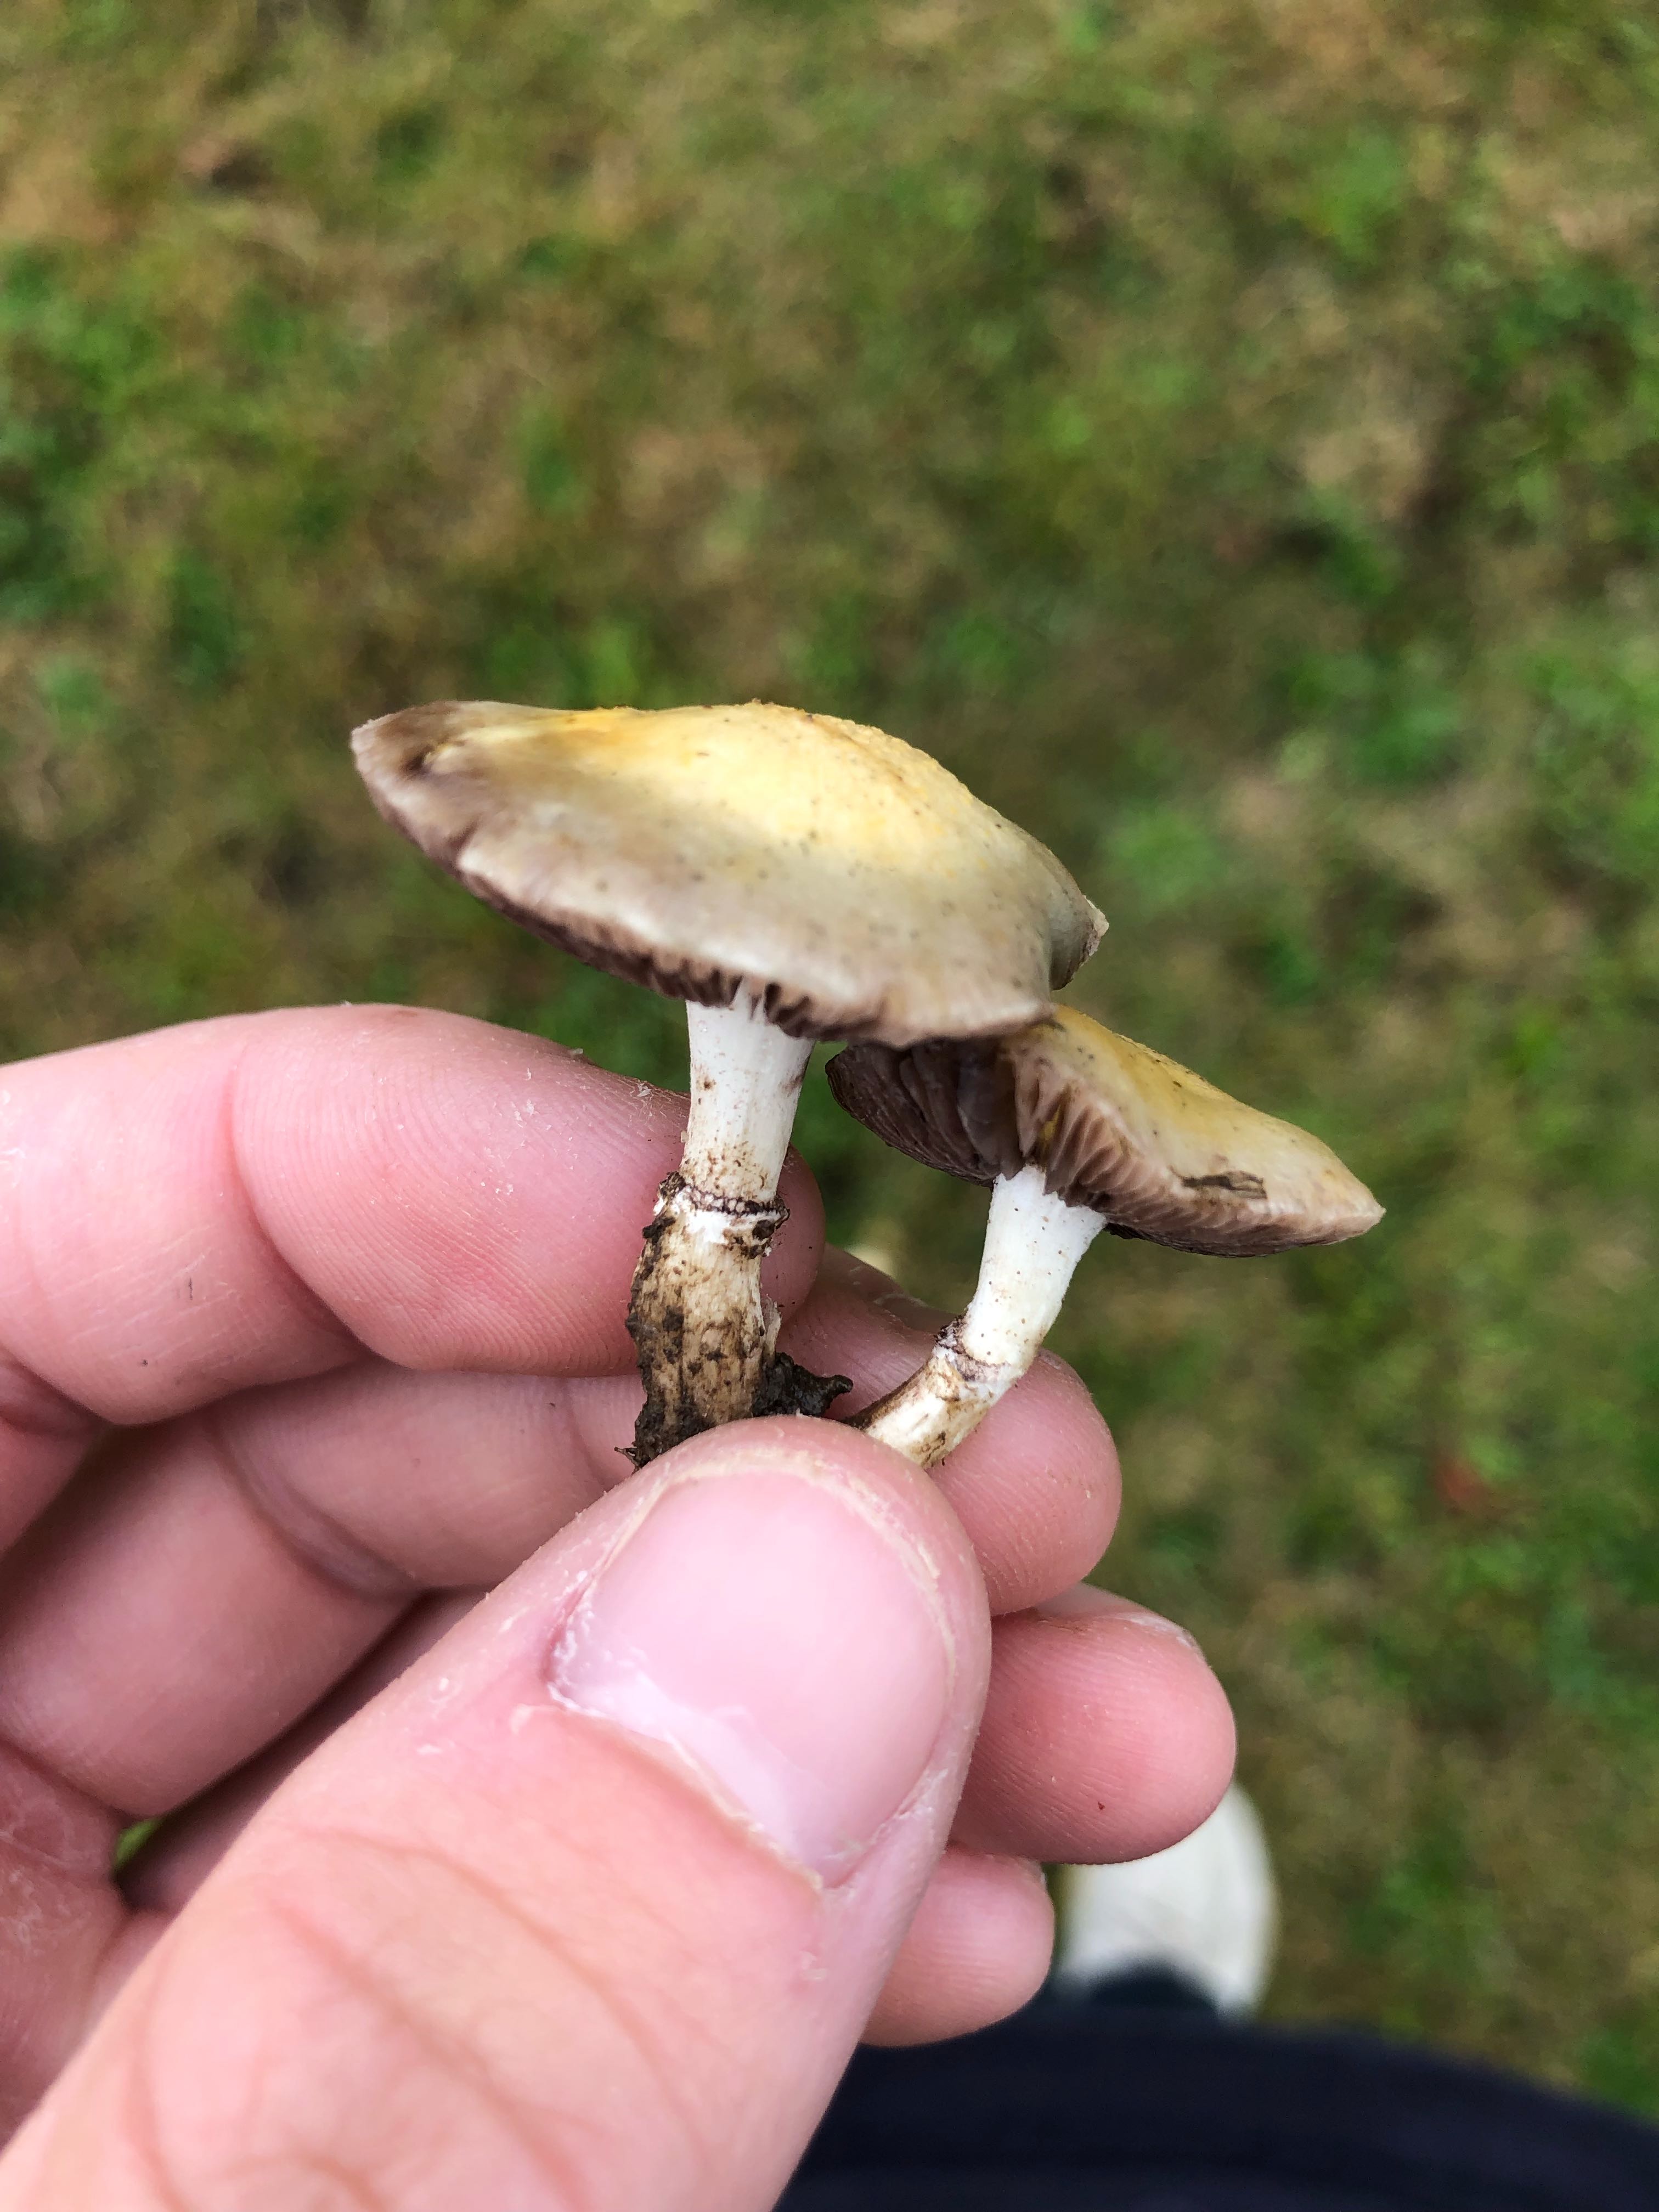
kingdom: Fungi
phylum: Basidiomycota
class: Agaricomycetes
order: Agaricales
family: Hymenogastraceae
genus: Psilocybe
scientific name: Psilocybe coronilla
